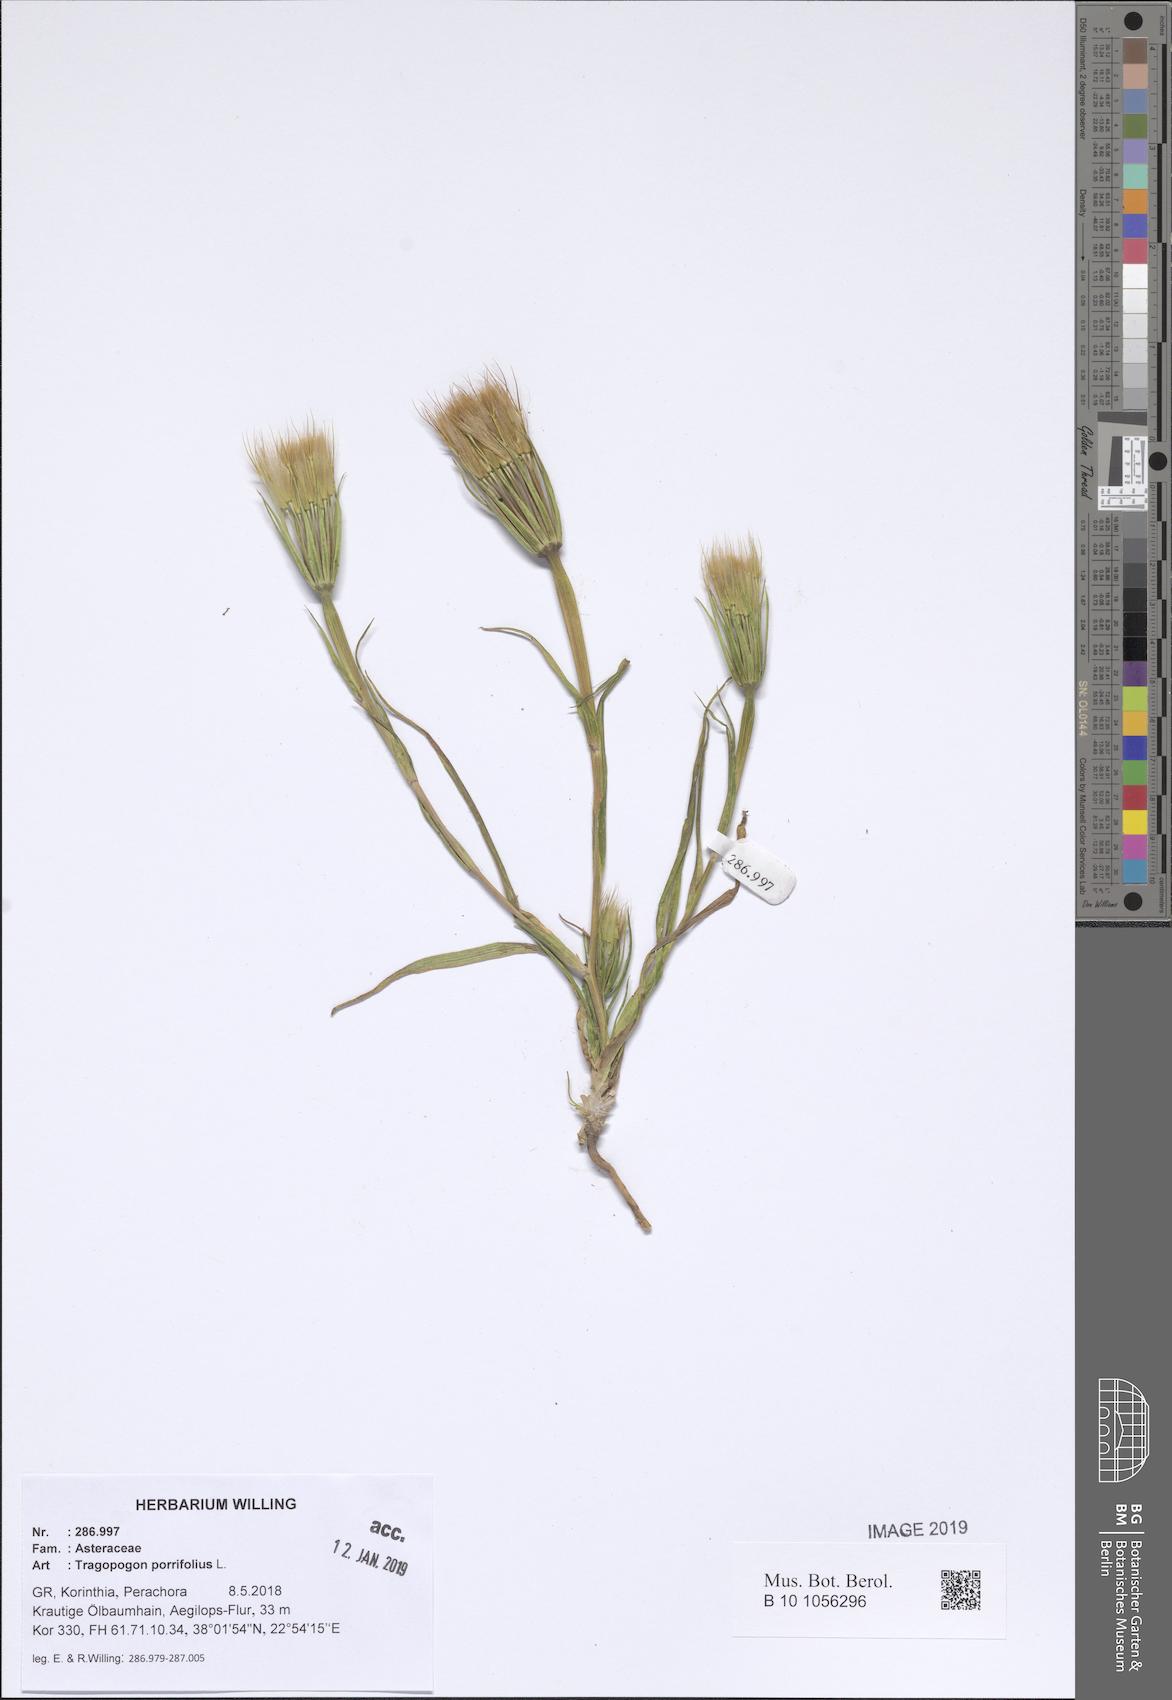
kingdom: Plantae
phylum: Tracheophyta
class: Magnoliopsida
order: Asterales
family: Asteraceae
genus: Tragopogon
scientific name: Tragopogon porrifolius
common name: Salsify
